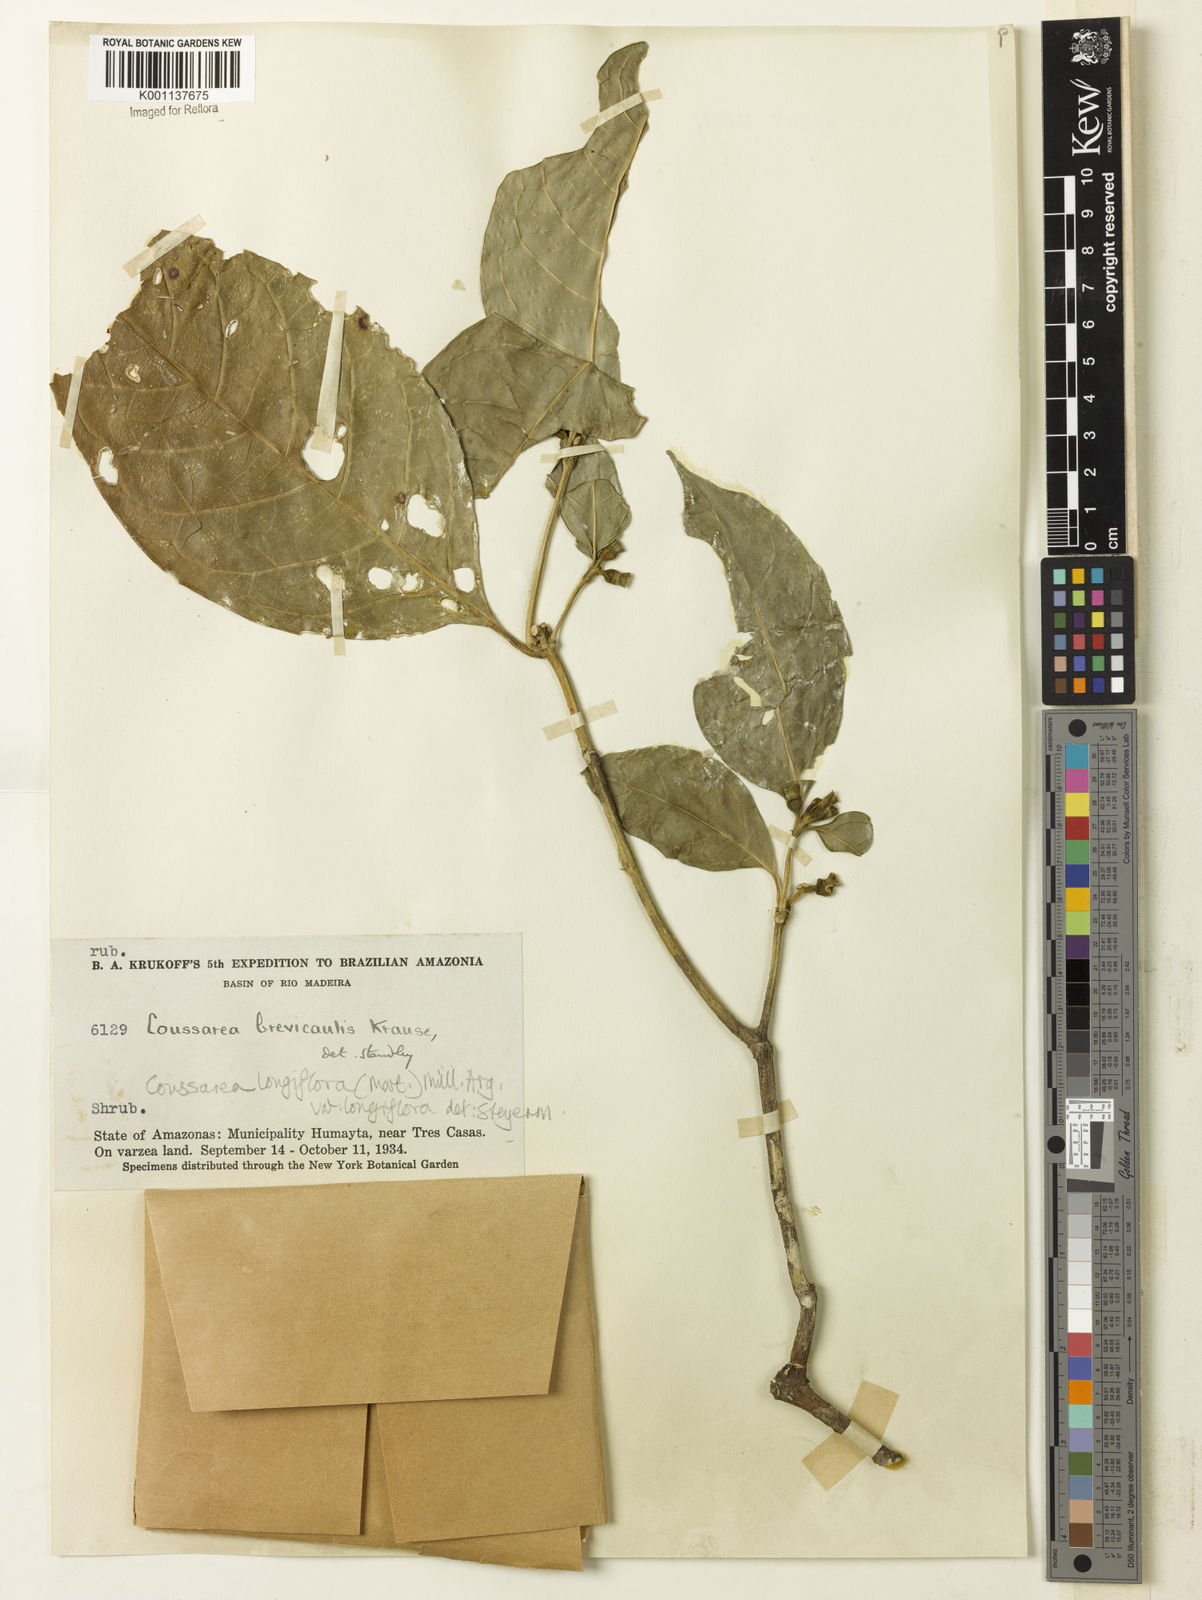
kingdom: Plantae
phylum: Tracheophyta
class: Magnoliopsida
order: Gentianales
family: Rubiaceae
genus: Coussarea
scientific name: Coussarea
